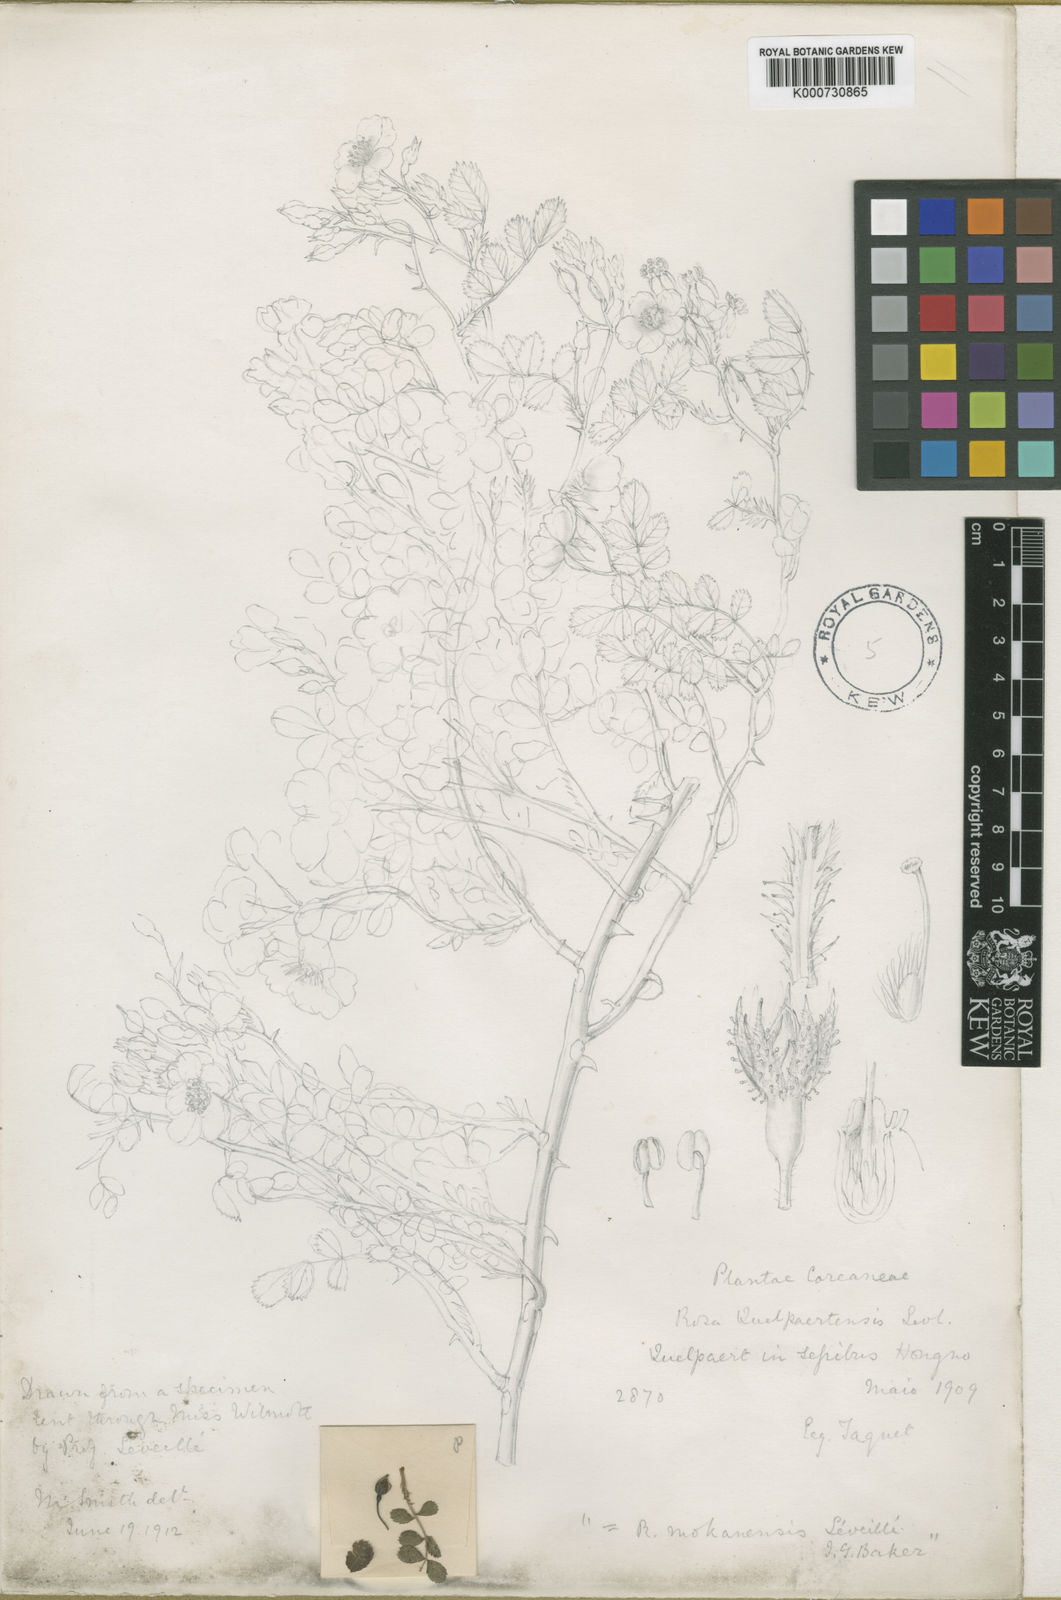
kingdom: Plantae
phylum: Tracheophyta
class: Magnoliopsida
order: Rosales
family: Rosaceae
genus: Rosa
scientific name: Rosa multiflora
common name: Multiflora rose
